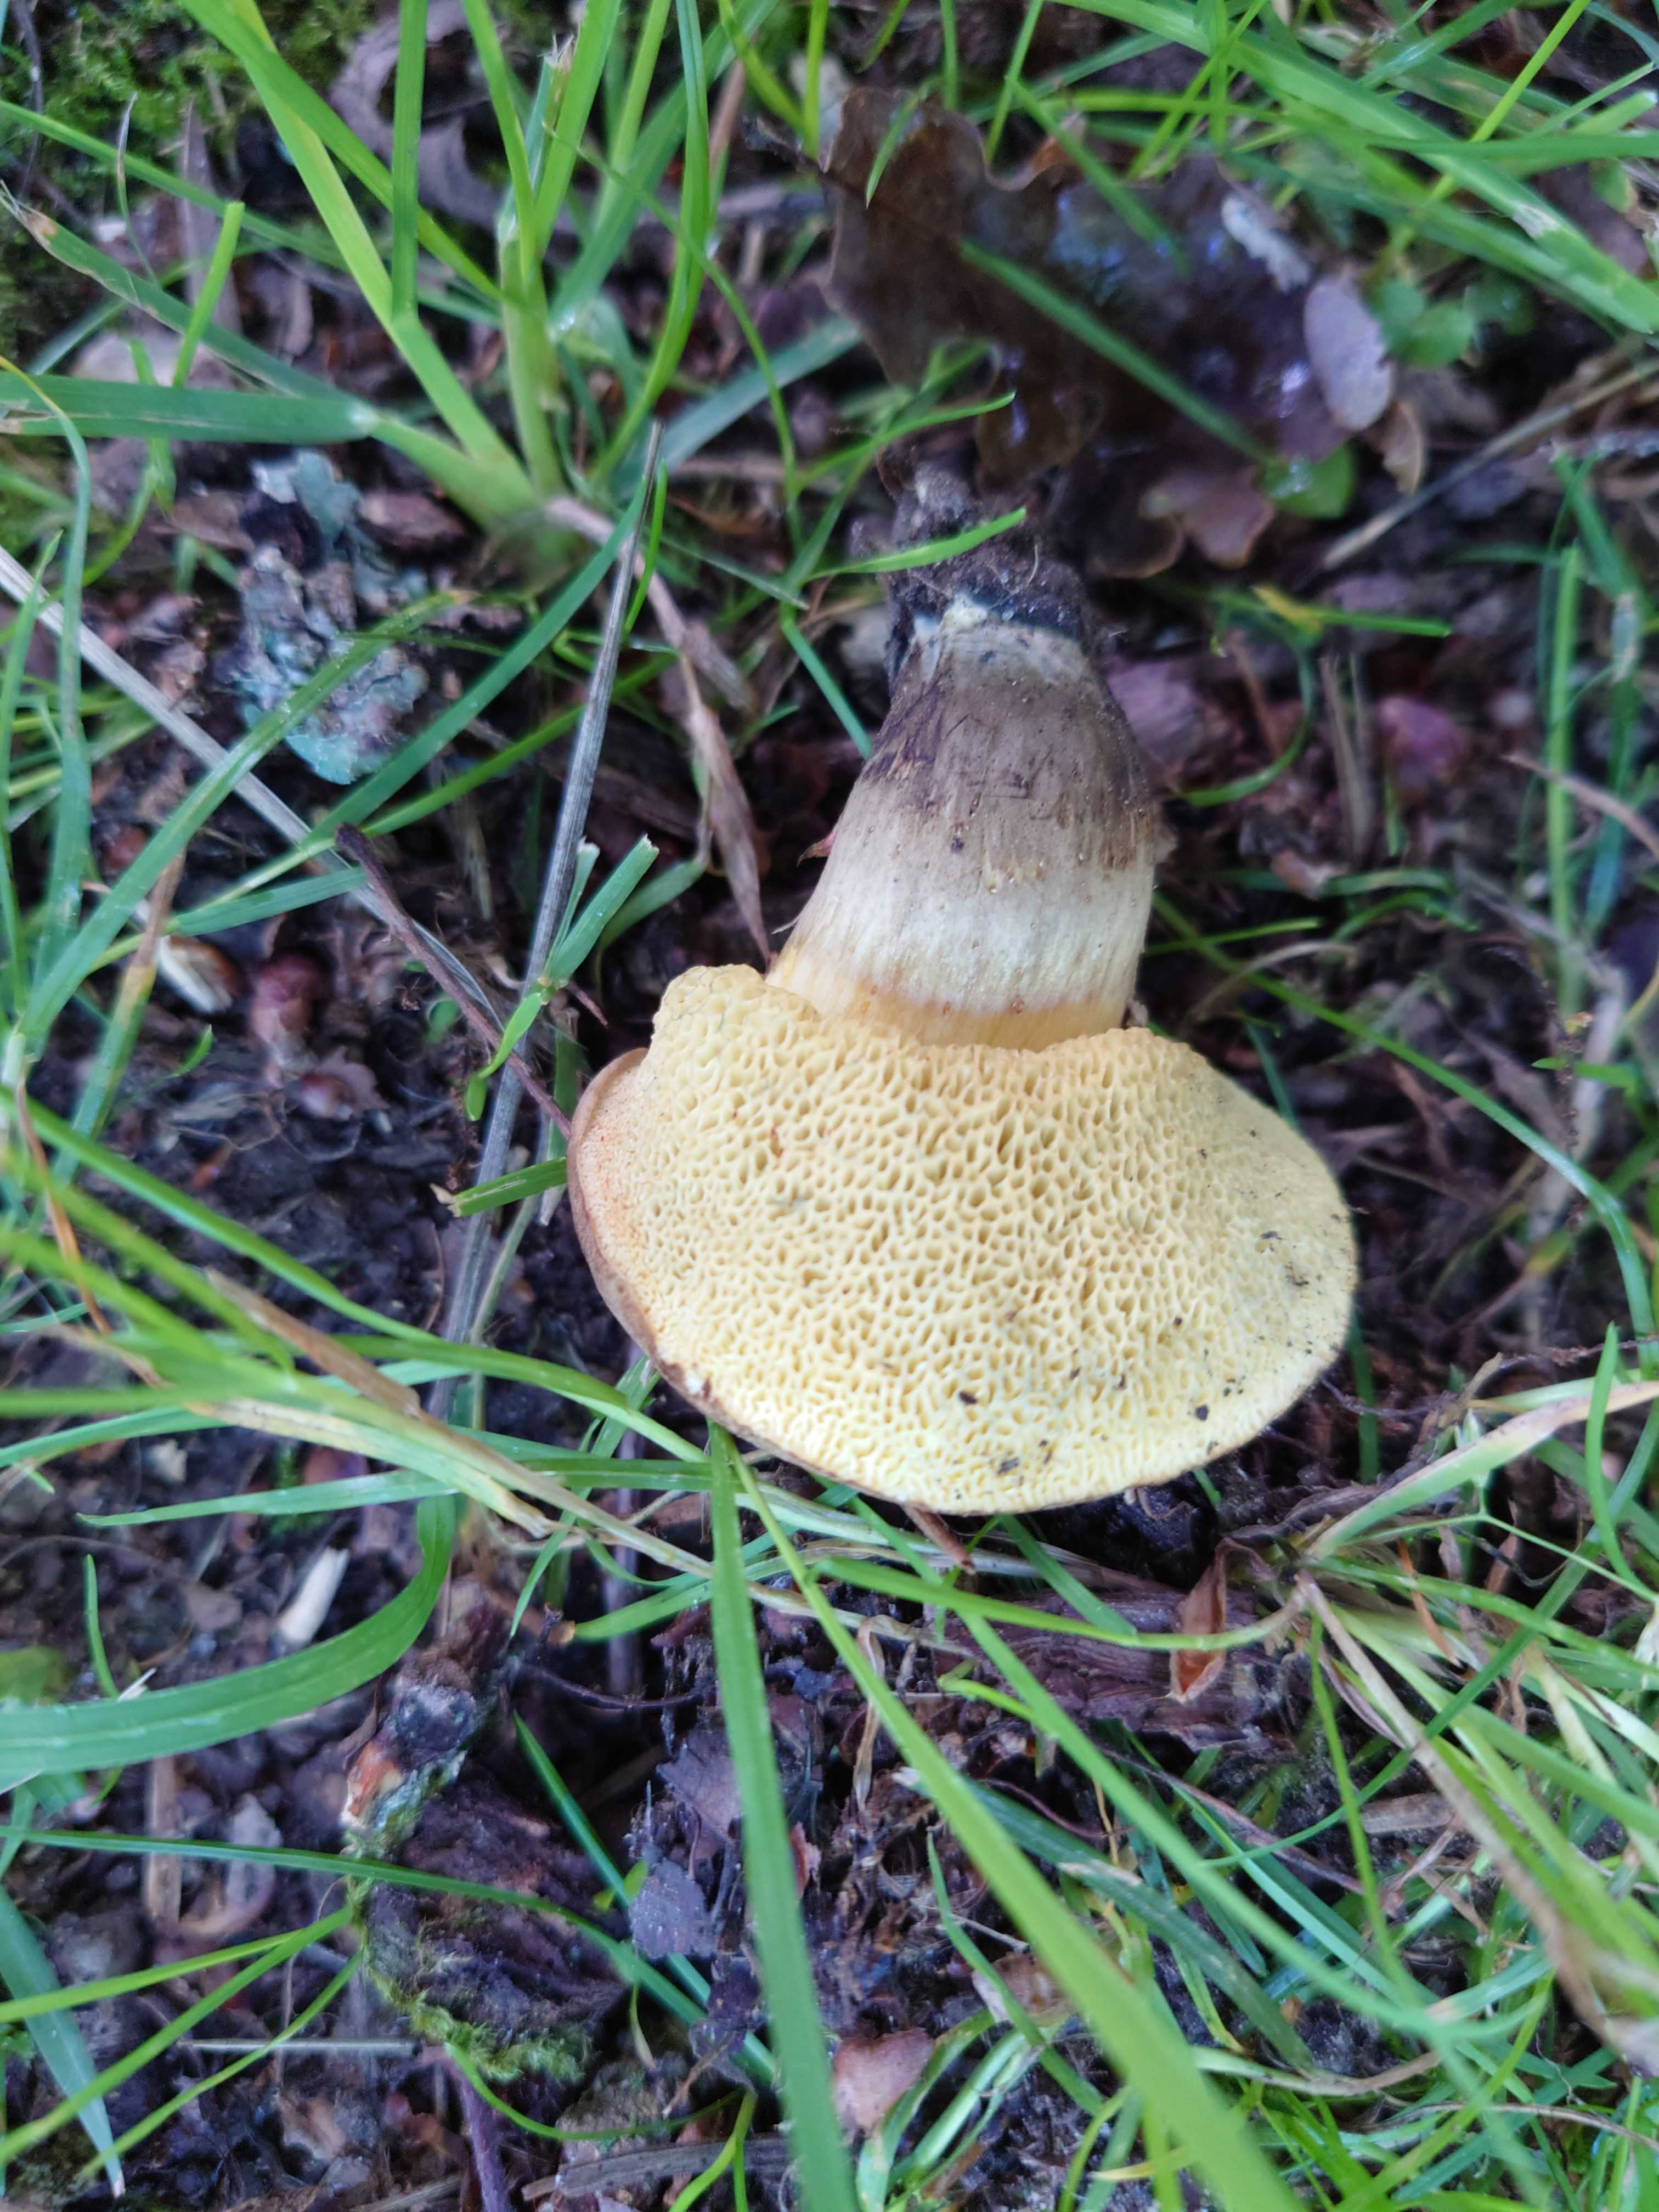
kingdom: Fungi
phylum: Basidiomycota
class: Agaricomycetes
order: Boletales
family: Boletaceae
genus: Xerocomellus
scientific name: Xerocomellus porosporus
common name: hvidsprukken rørhat
